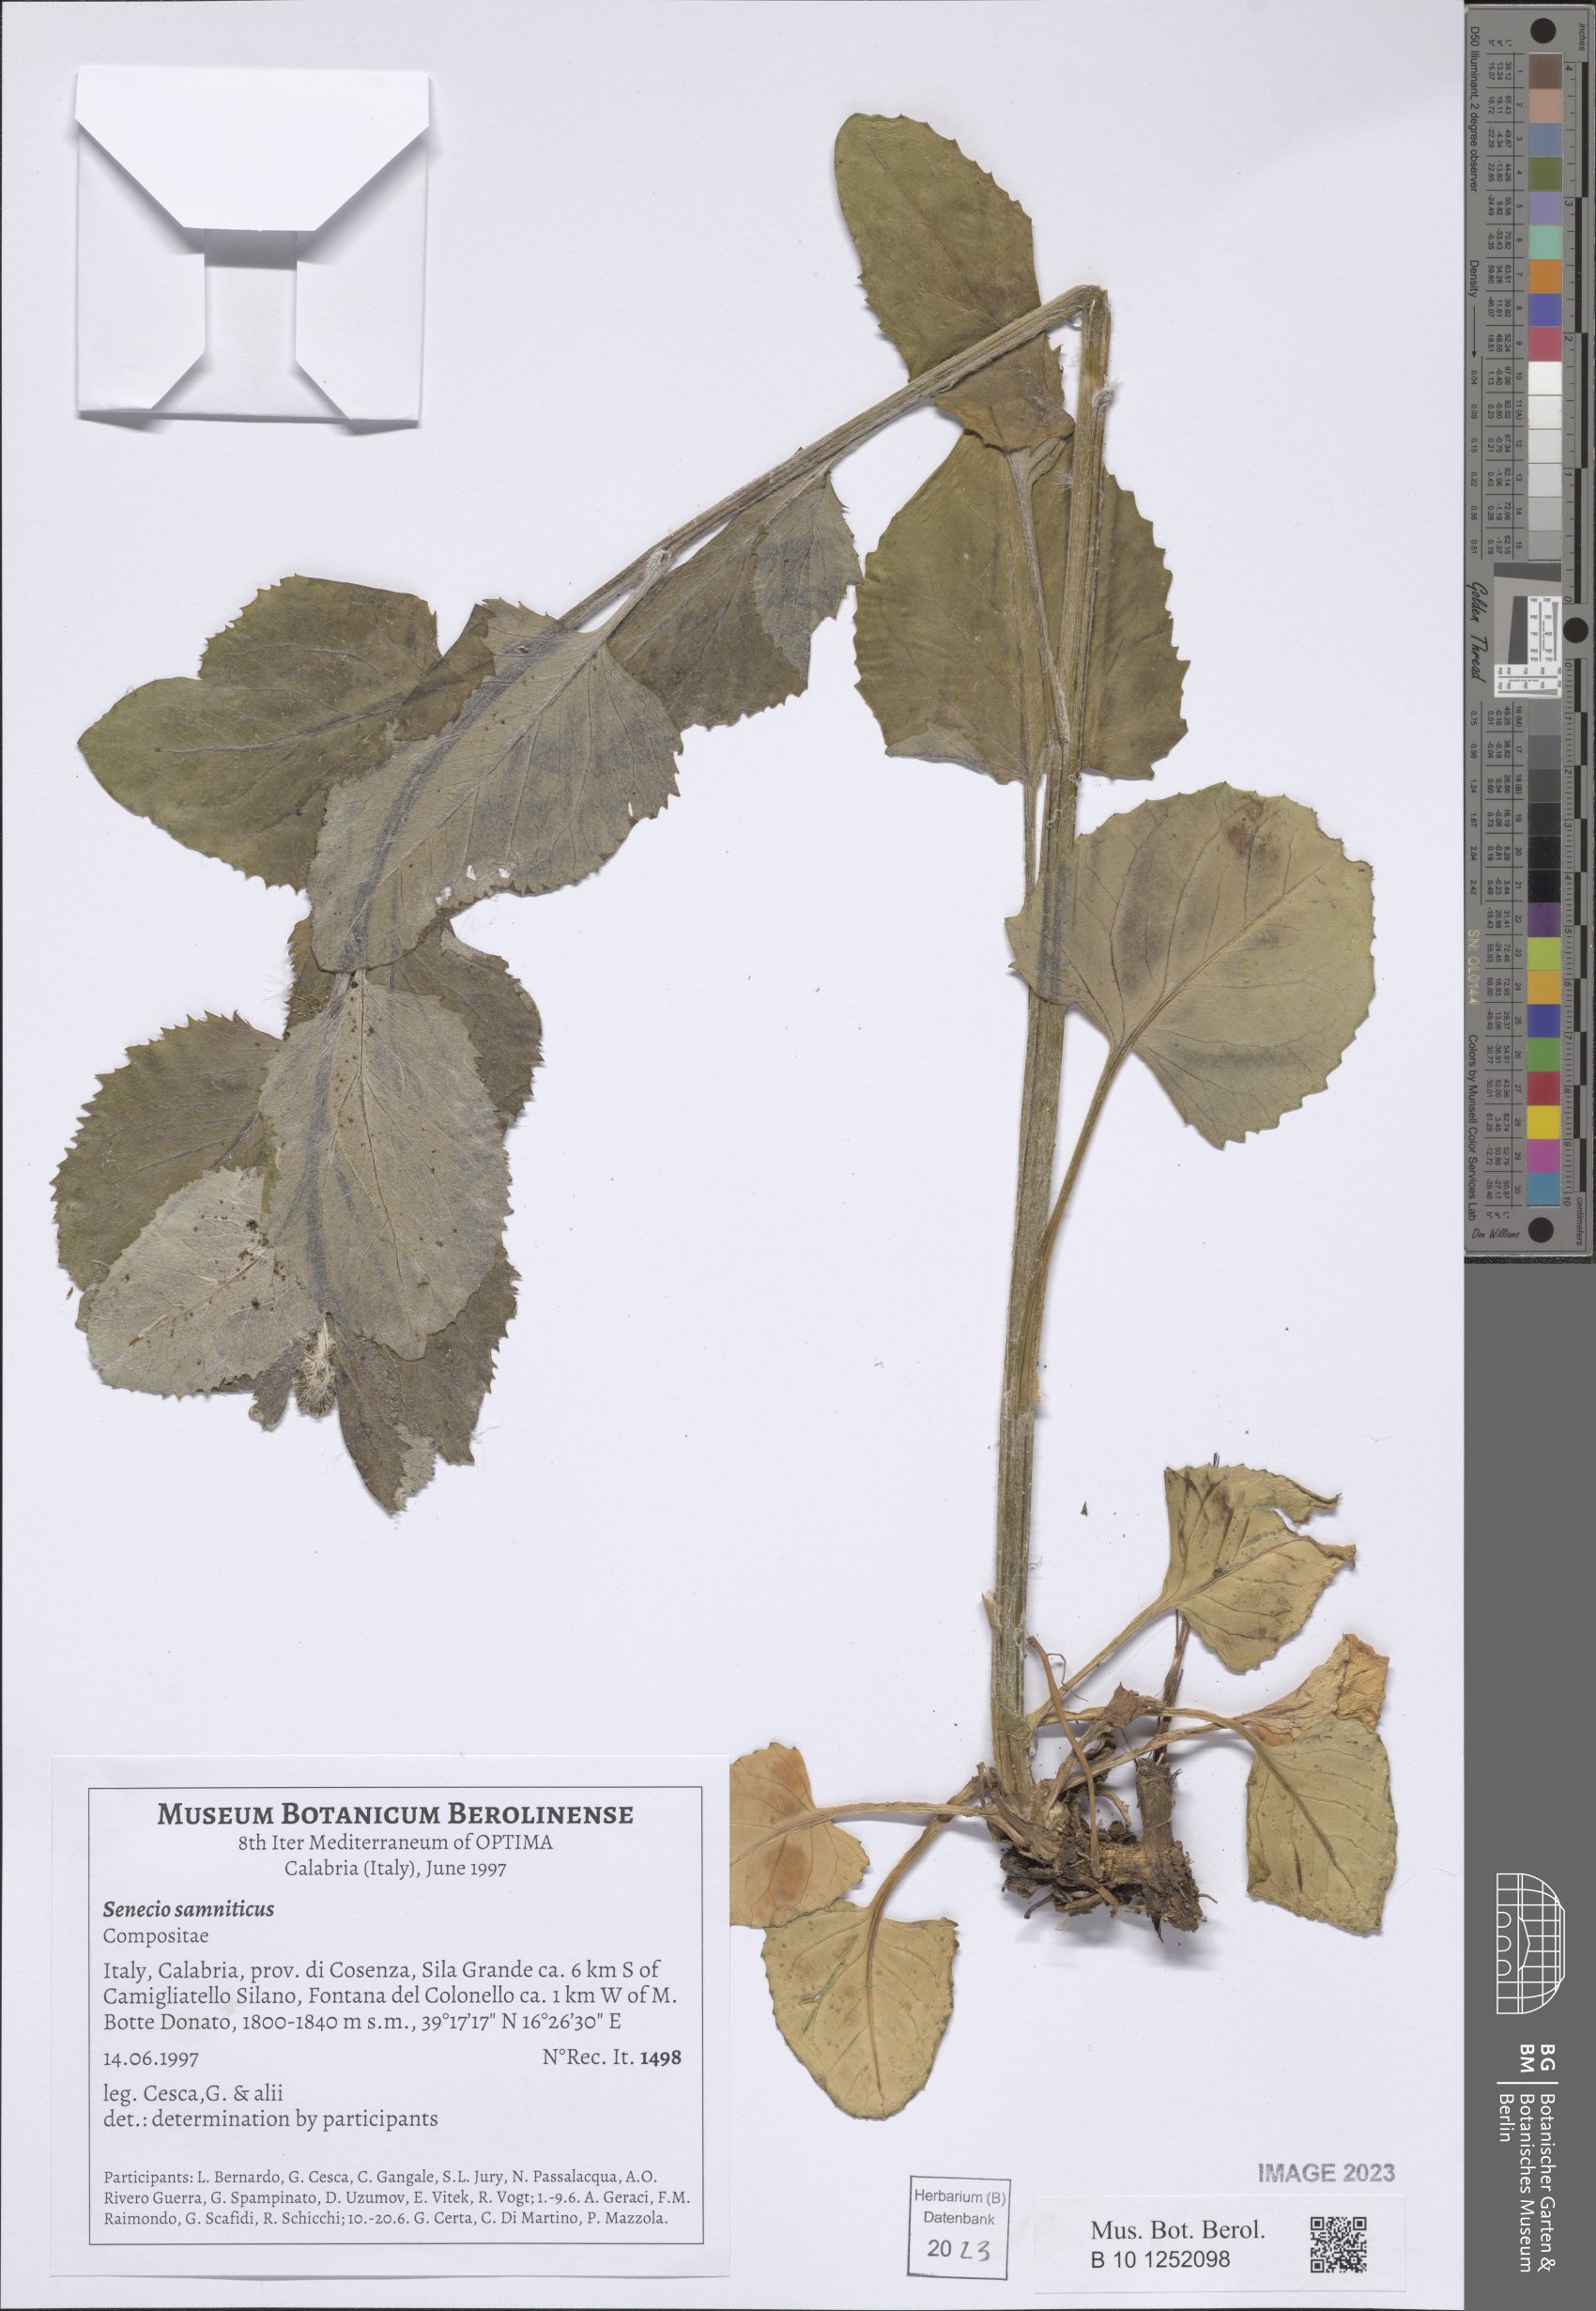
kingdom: Plantae
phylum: Tracheophyta
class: Magnoliopsida
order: Asterales
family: Asteraceae
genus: Jacobaea
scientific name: Jacobaea alpina
